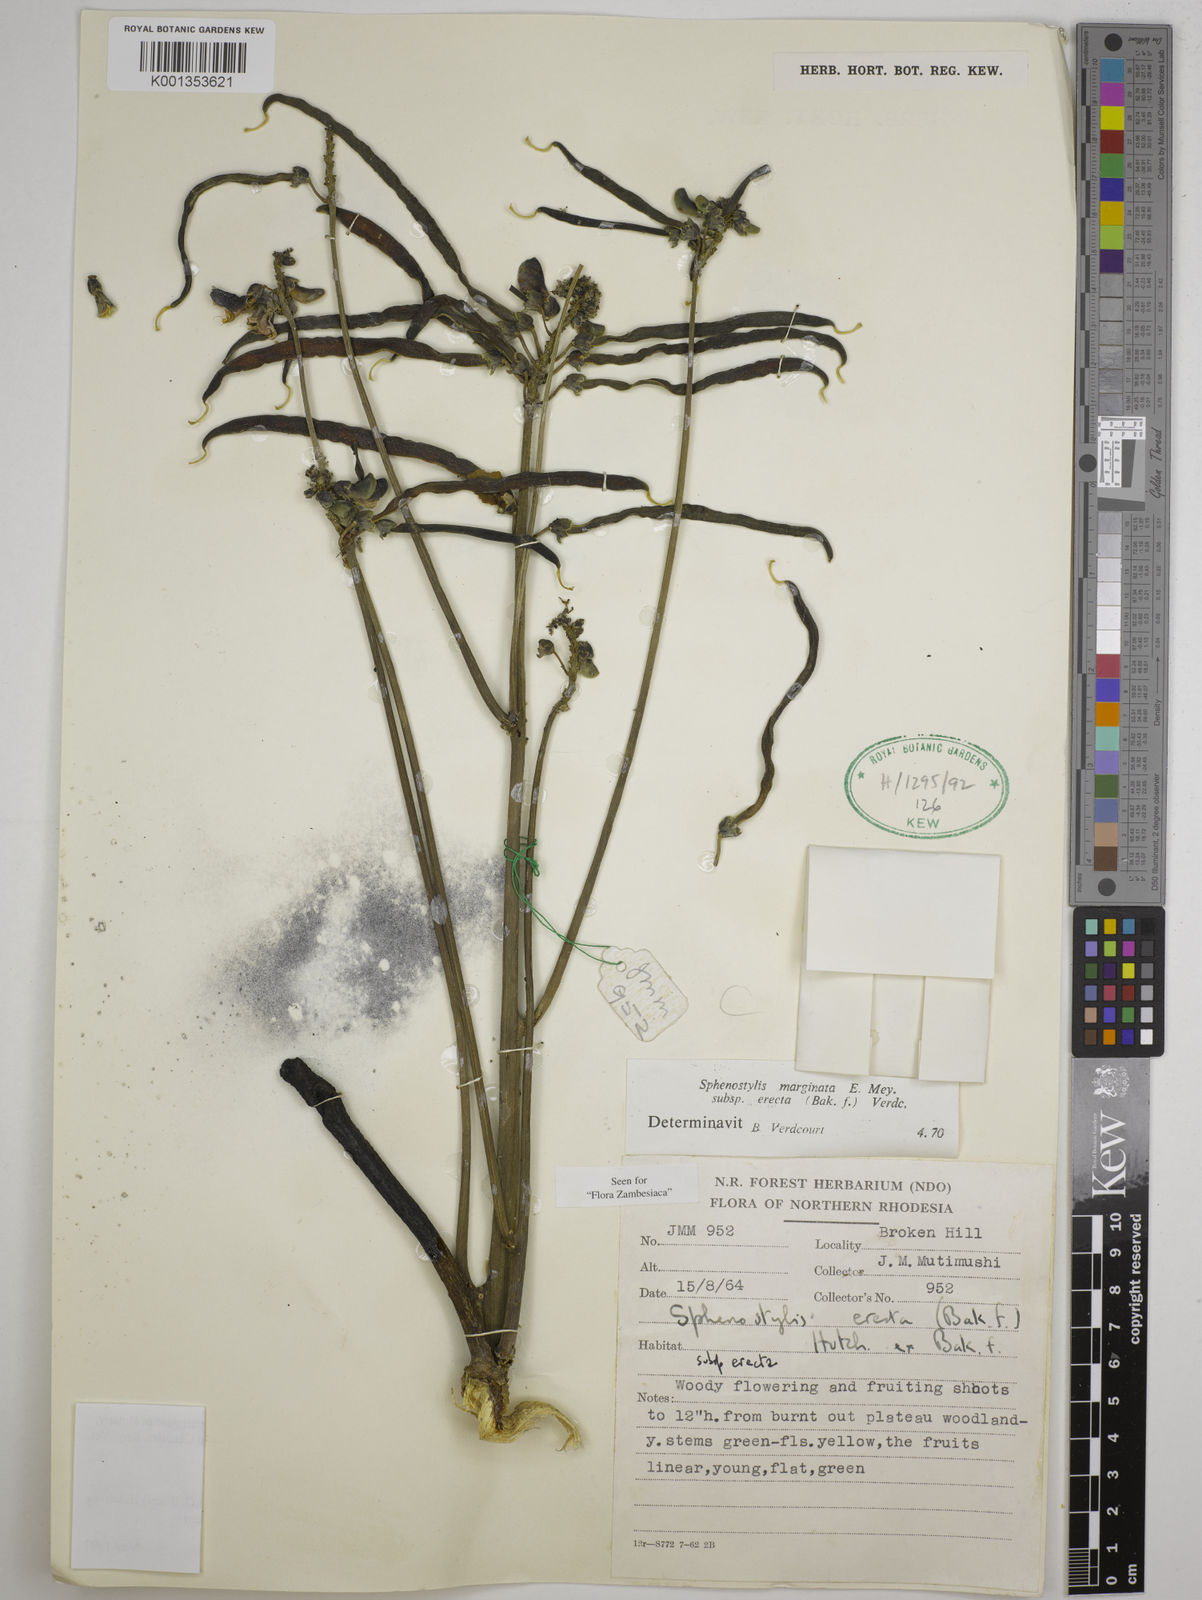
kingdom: Plantae
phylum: Tracheophyta
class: Magnoliopsida
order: Fabales
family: Fabaceae
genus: Sphenostylis
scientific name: Sphenostylis erecta
